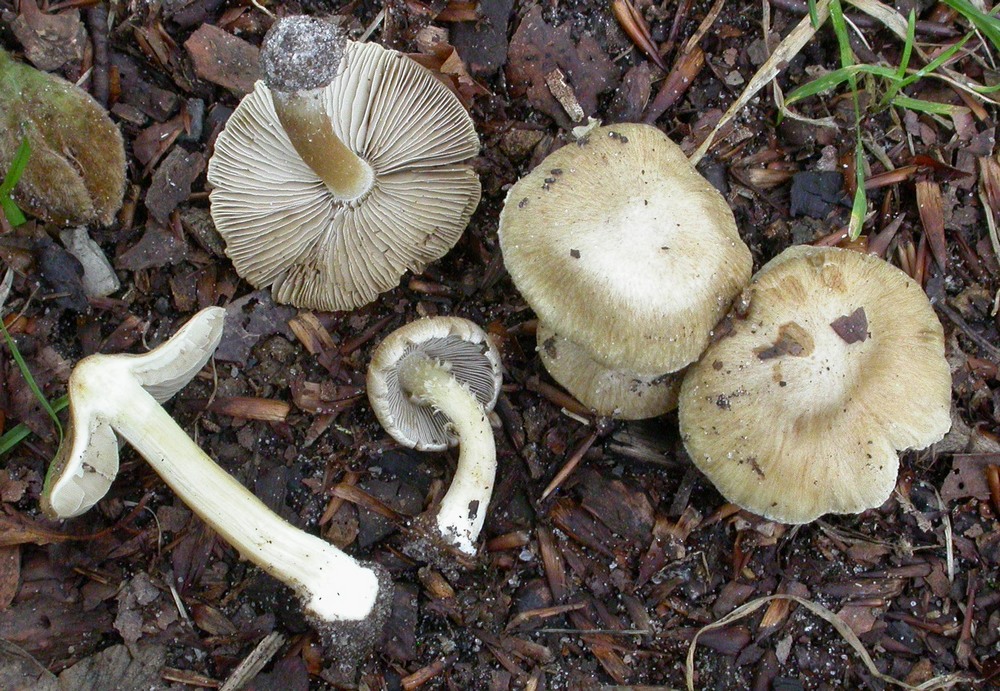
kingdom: Fungi
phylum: Basidiomycota
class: Agaricomycetes
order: Agaricales
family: Inocybaceae
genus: Inocybe
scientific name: Inocybe sindonia
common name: bleg trævlhat
